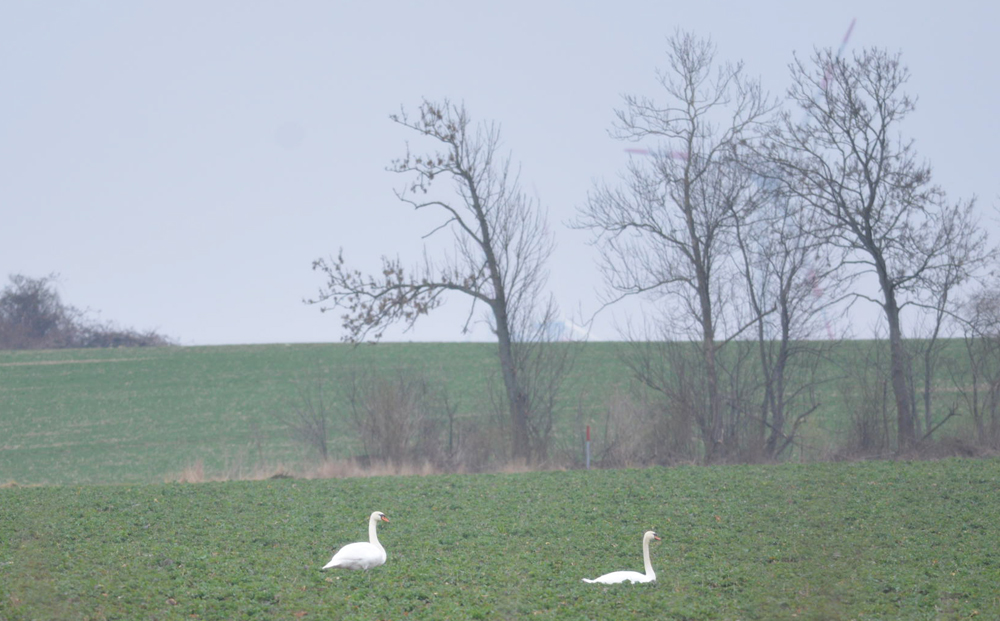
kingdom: Animalia
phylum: Chordata
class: Aves
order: Anseriformes
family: Anatidae
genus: Cygnus
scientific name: Cygnus olor
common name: Mute swan
